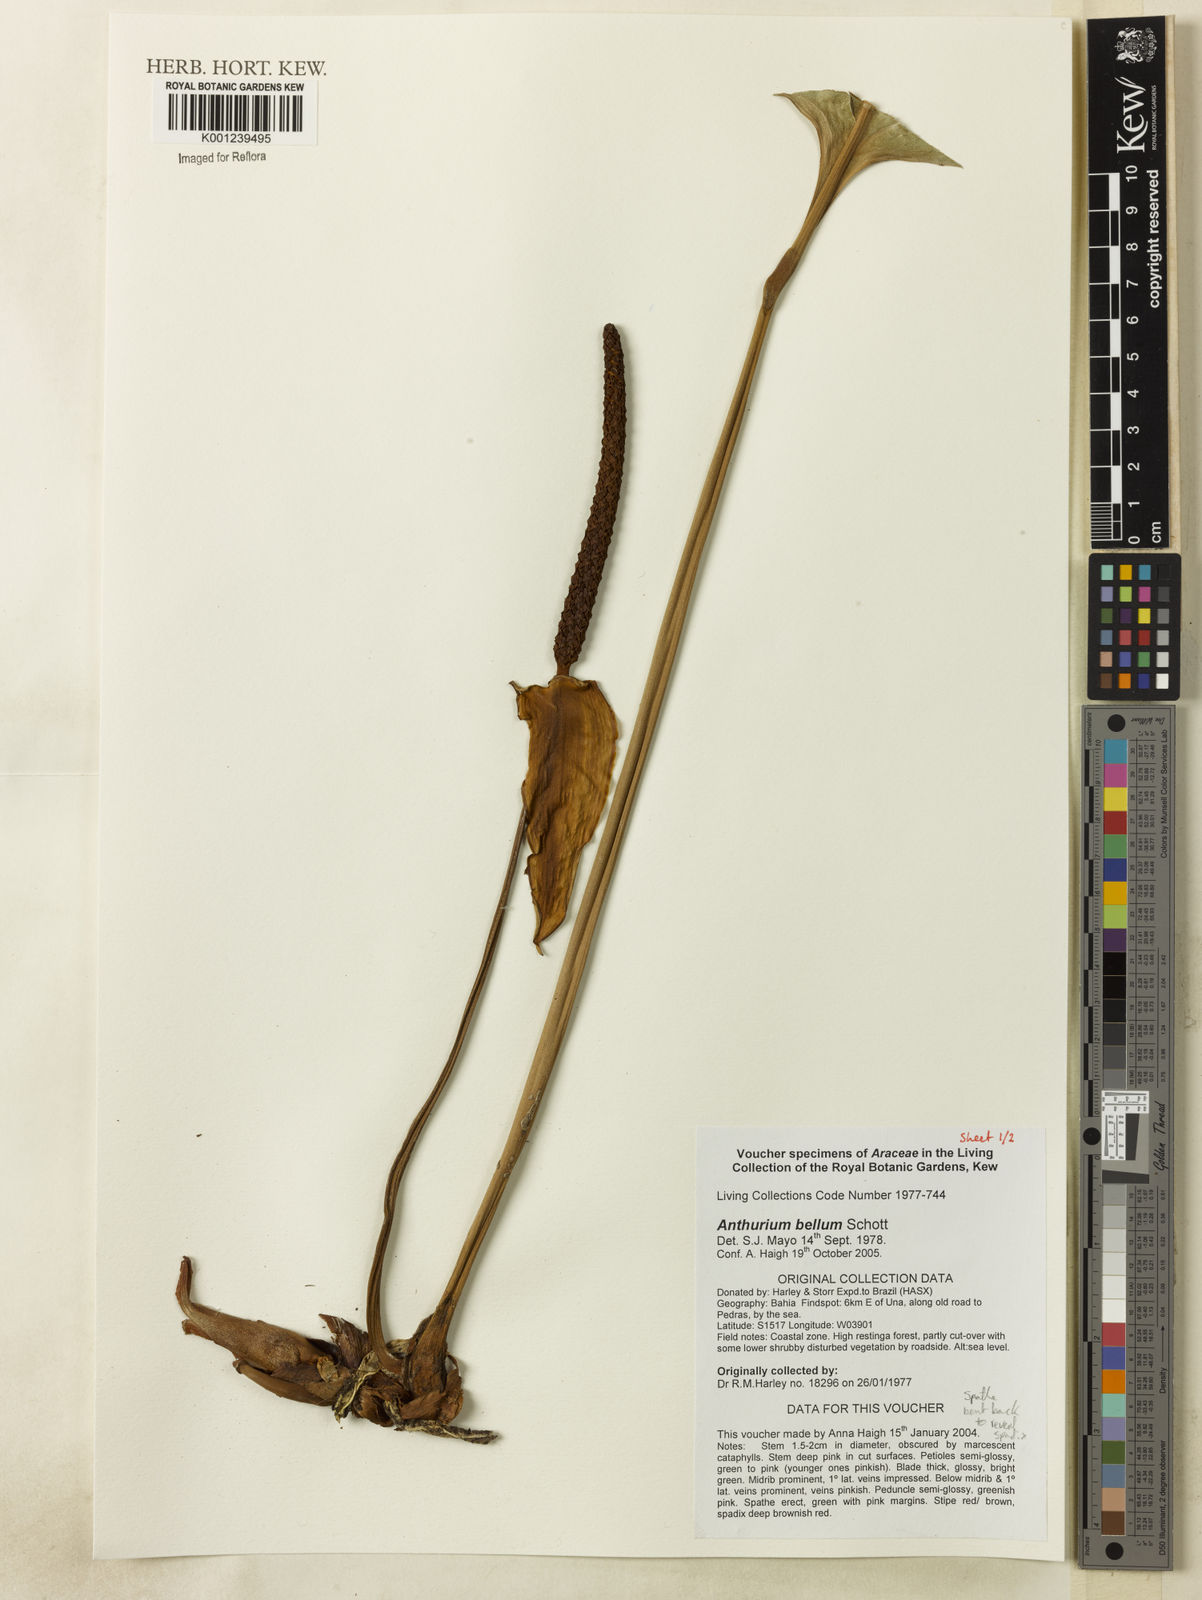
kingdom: Plantae
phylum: Tracheophyta
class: Liliopsida
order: Alismatales
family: Araceae
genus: Anthurium
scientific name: Anthurium
